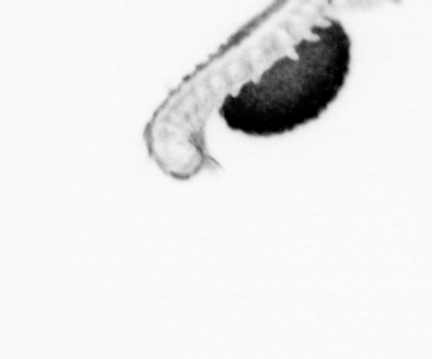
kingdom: Animalia
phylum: Annelida
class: Polychaeta
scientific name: Polychaeta
